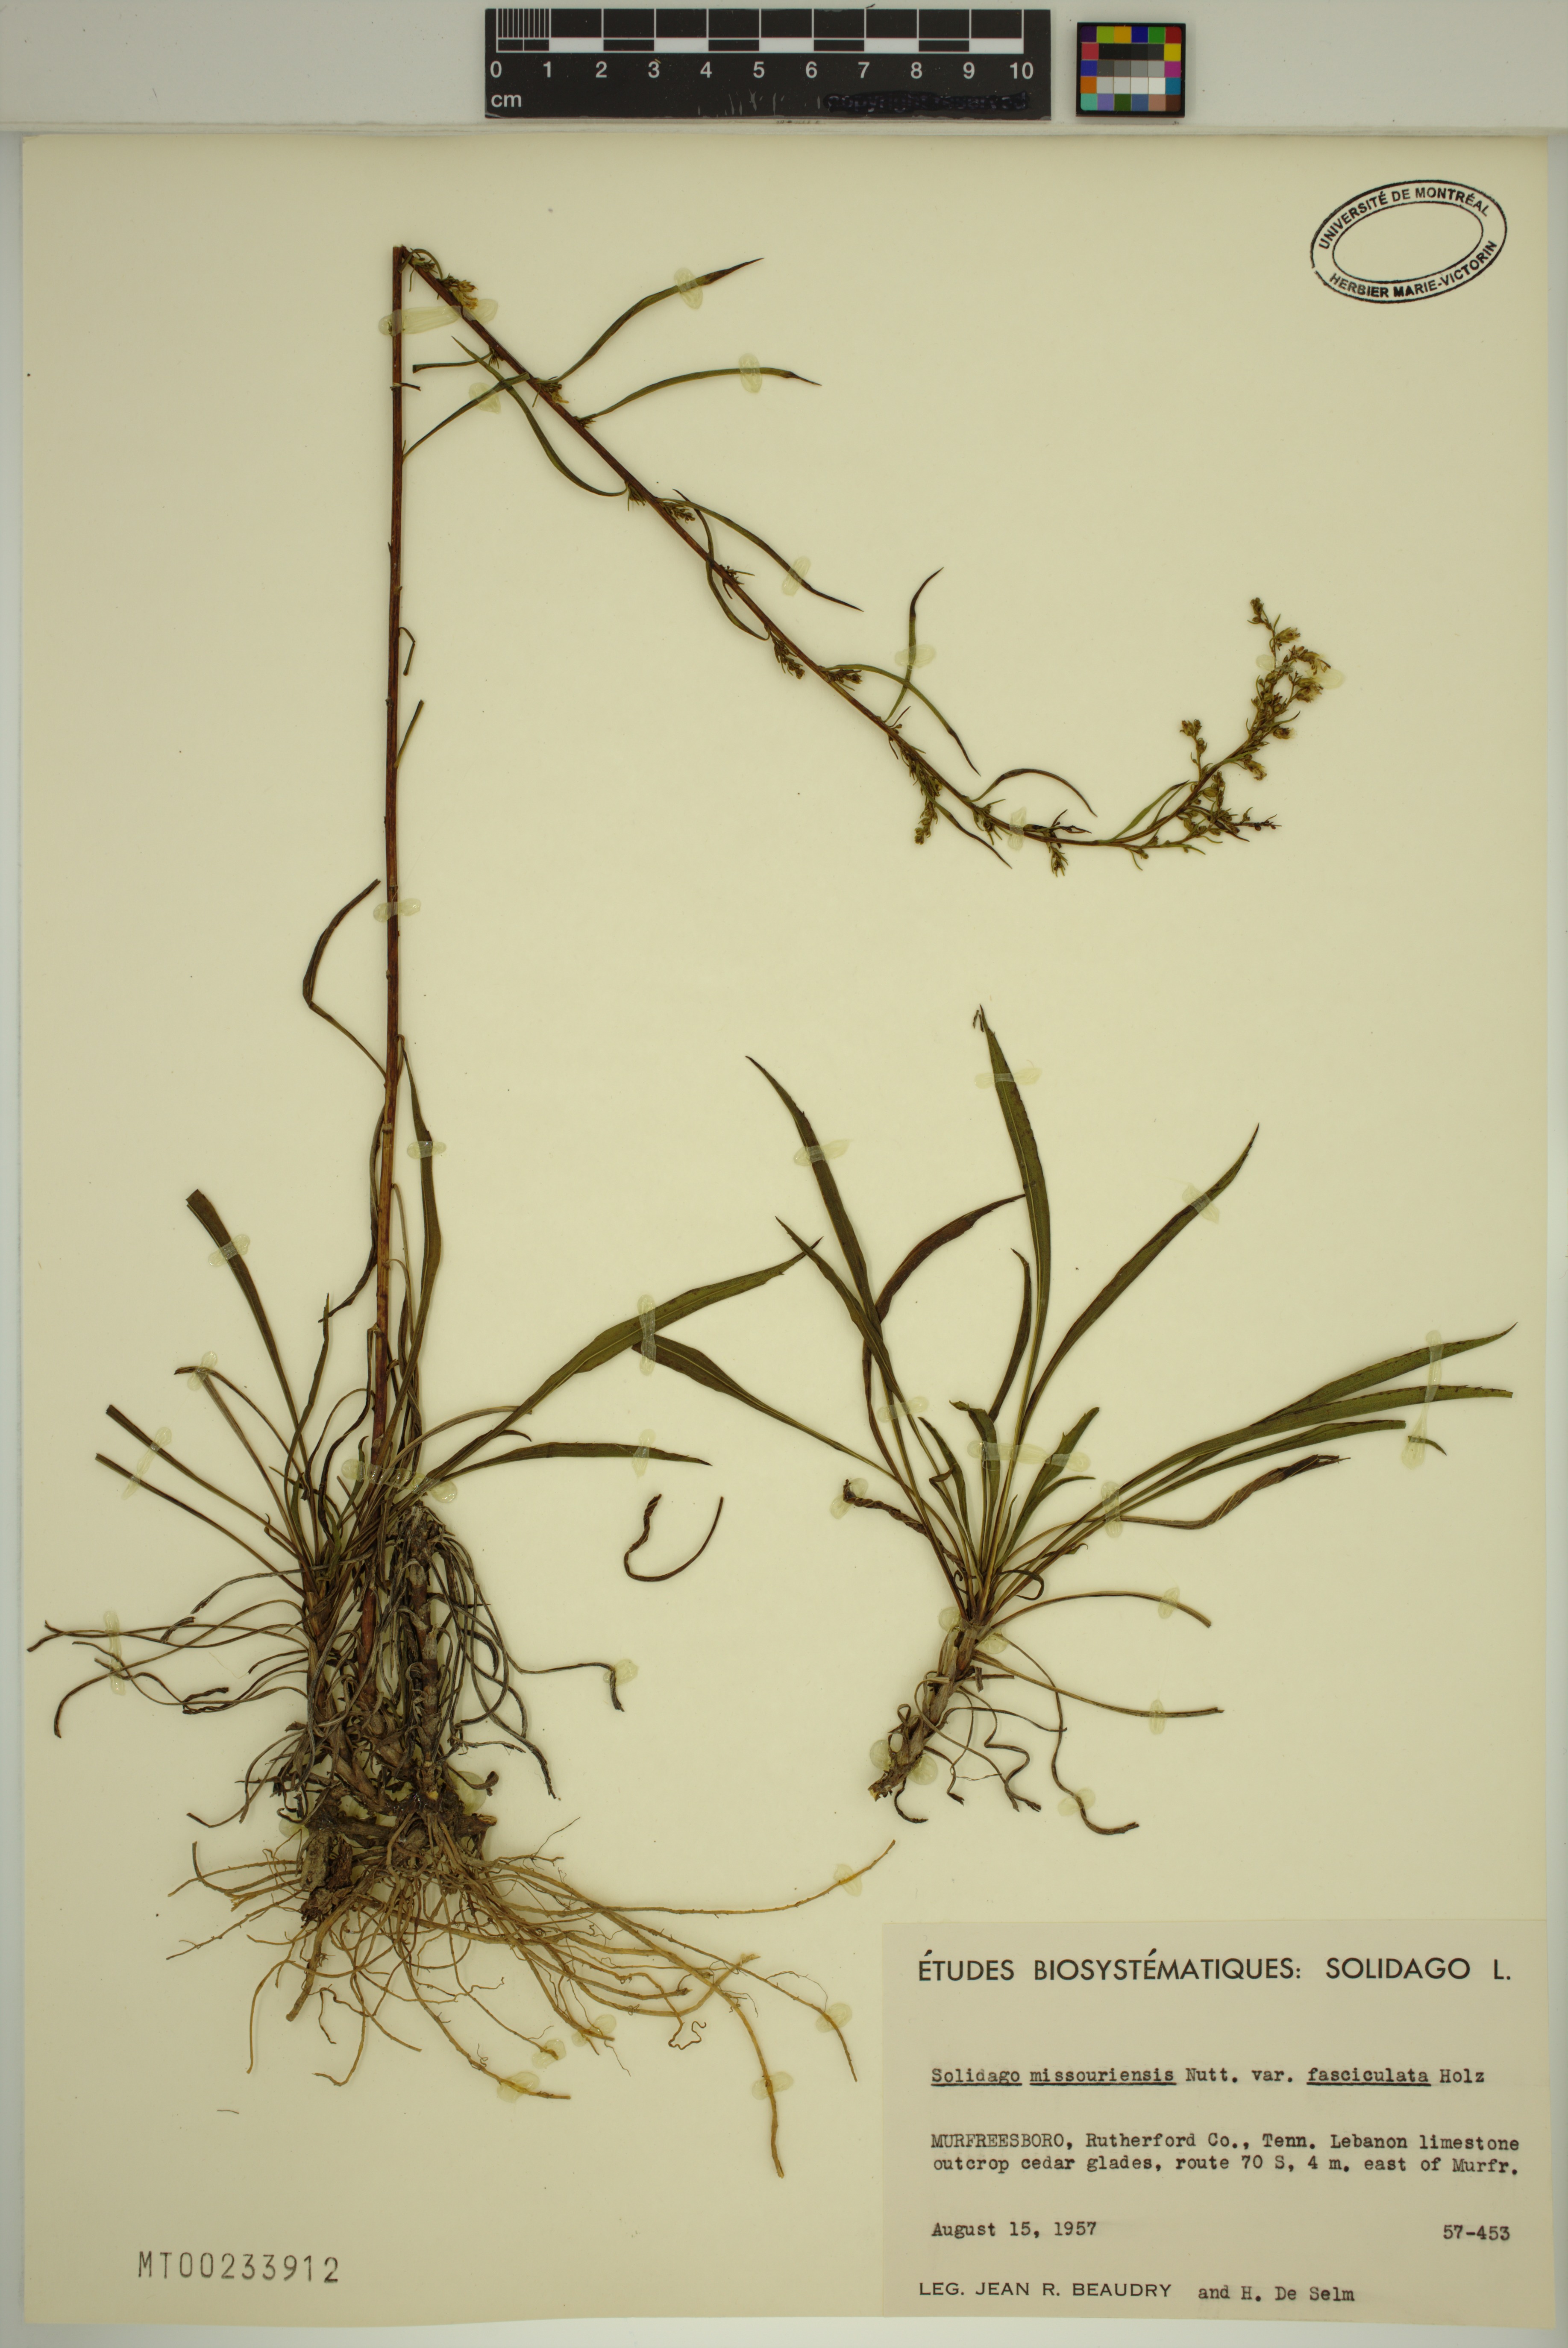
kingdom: Plantae
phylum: Tracheophyta
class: Magnoliopsida
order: Asterales
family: Asteraceae
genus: Solidago
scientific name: Solidago missouriensis
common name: Prairie goldenrod
